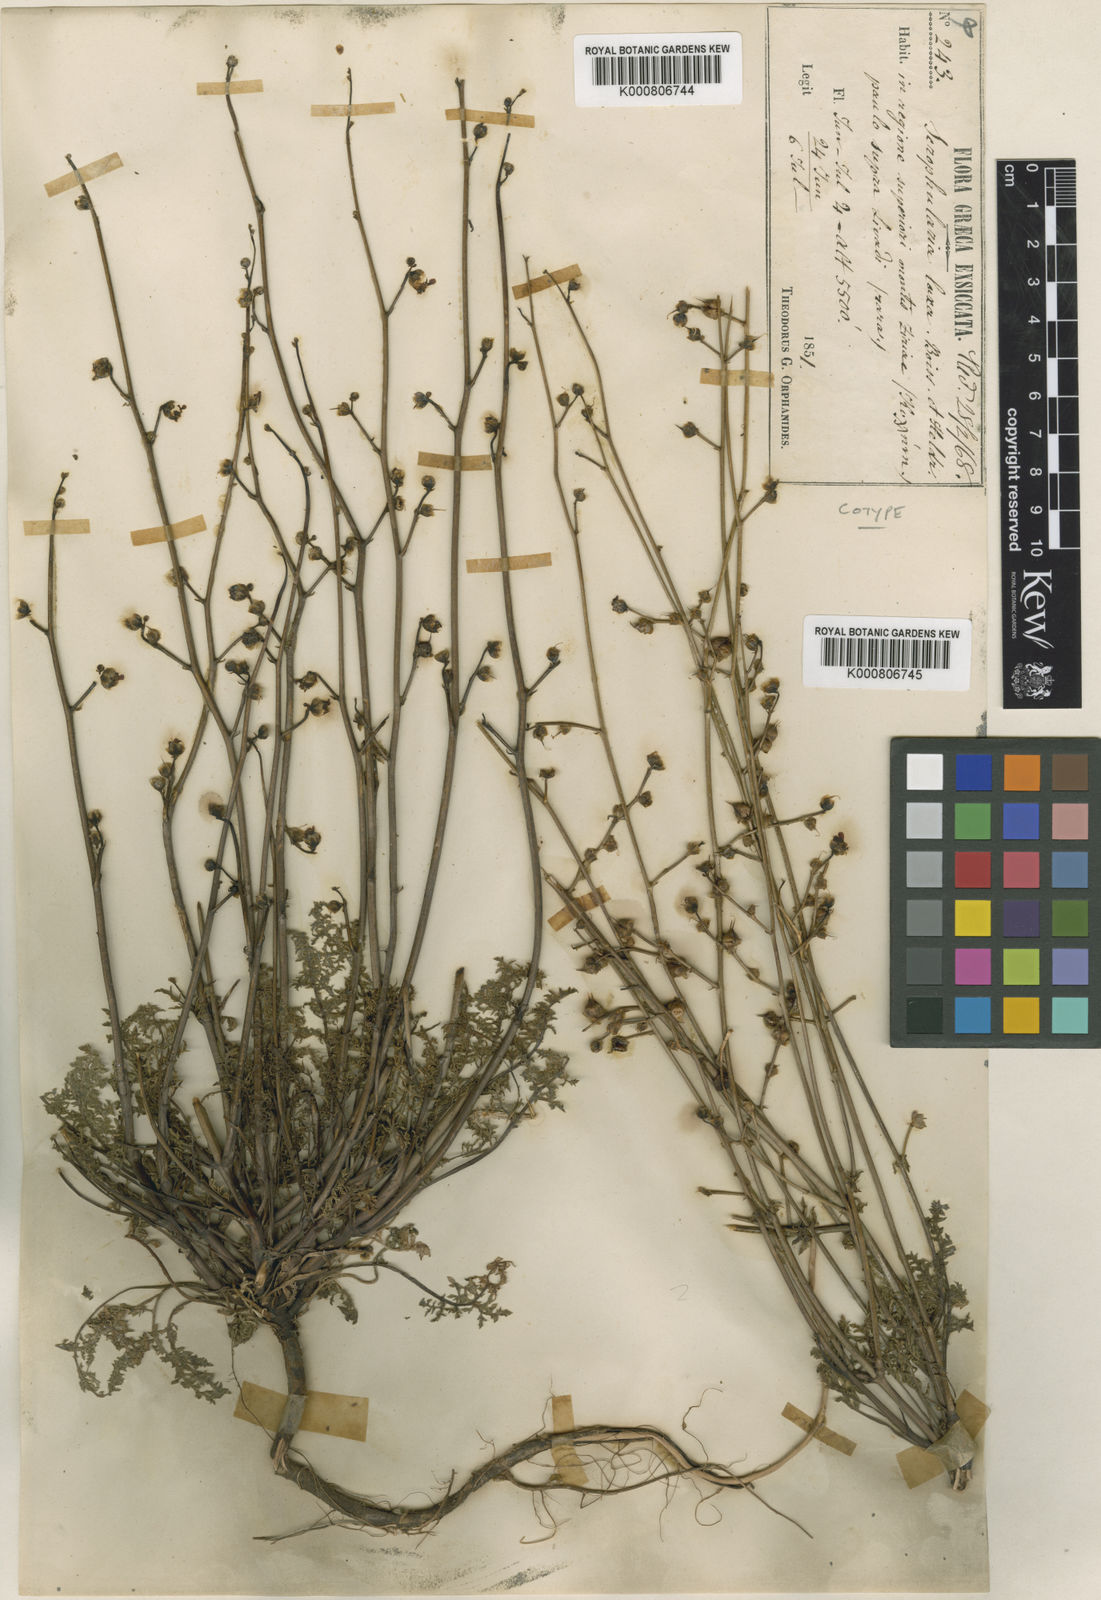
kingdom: Plantae
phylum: Tracheophyta
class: Magnoliopsida
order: Lamiales
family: Scrophulariaceae
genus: Scrophularia
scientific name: Scrophularia myriophylla
